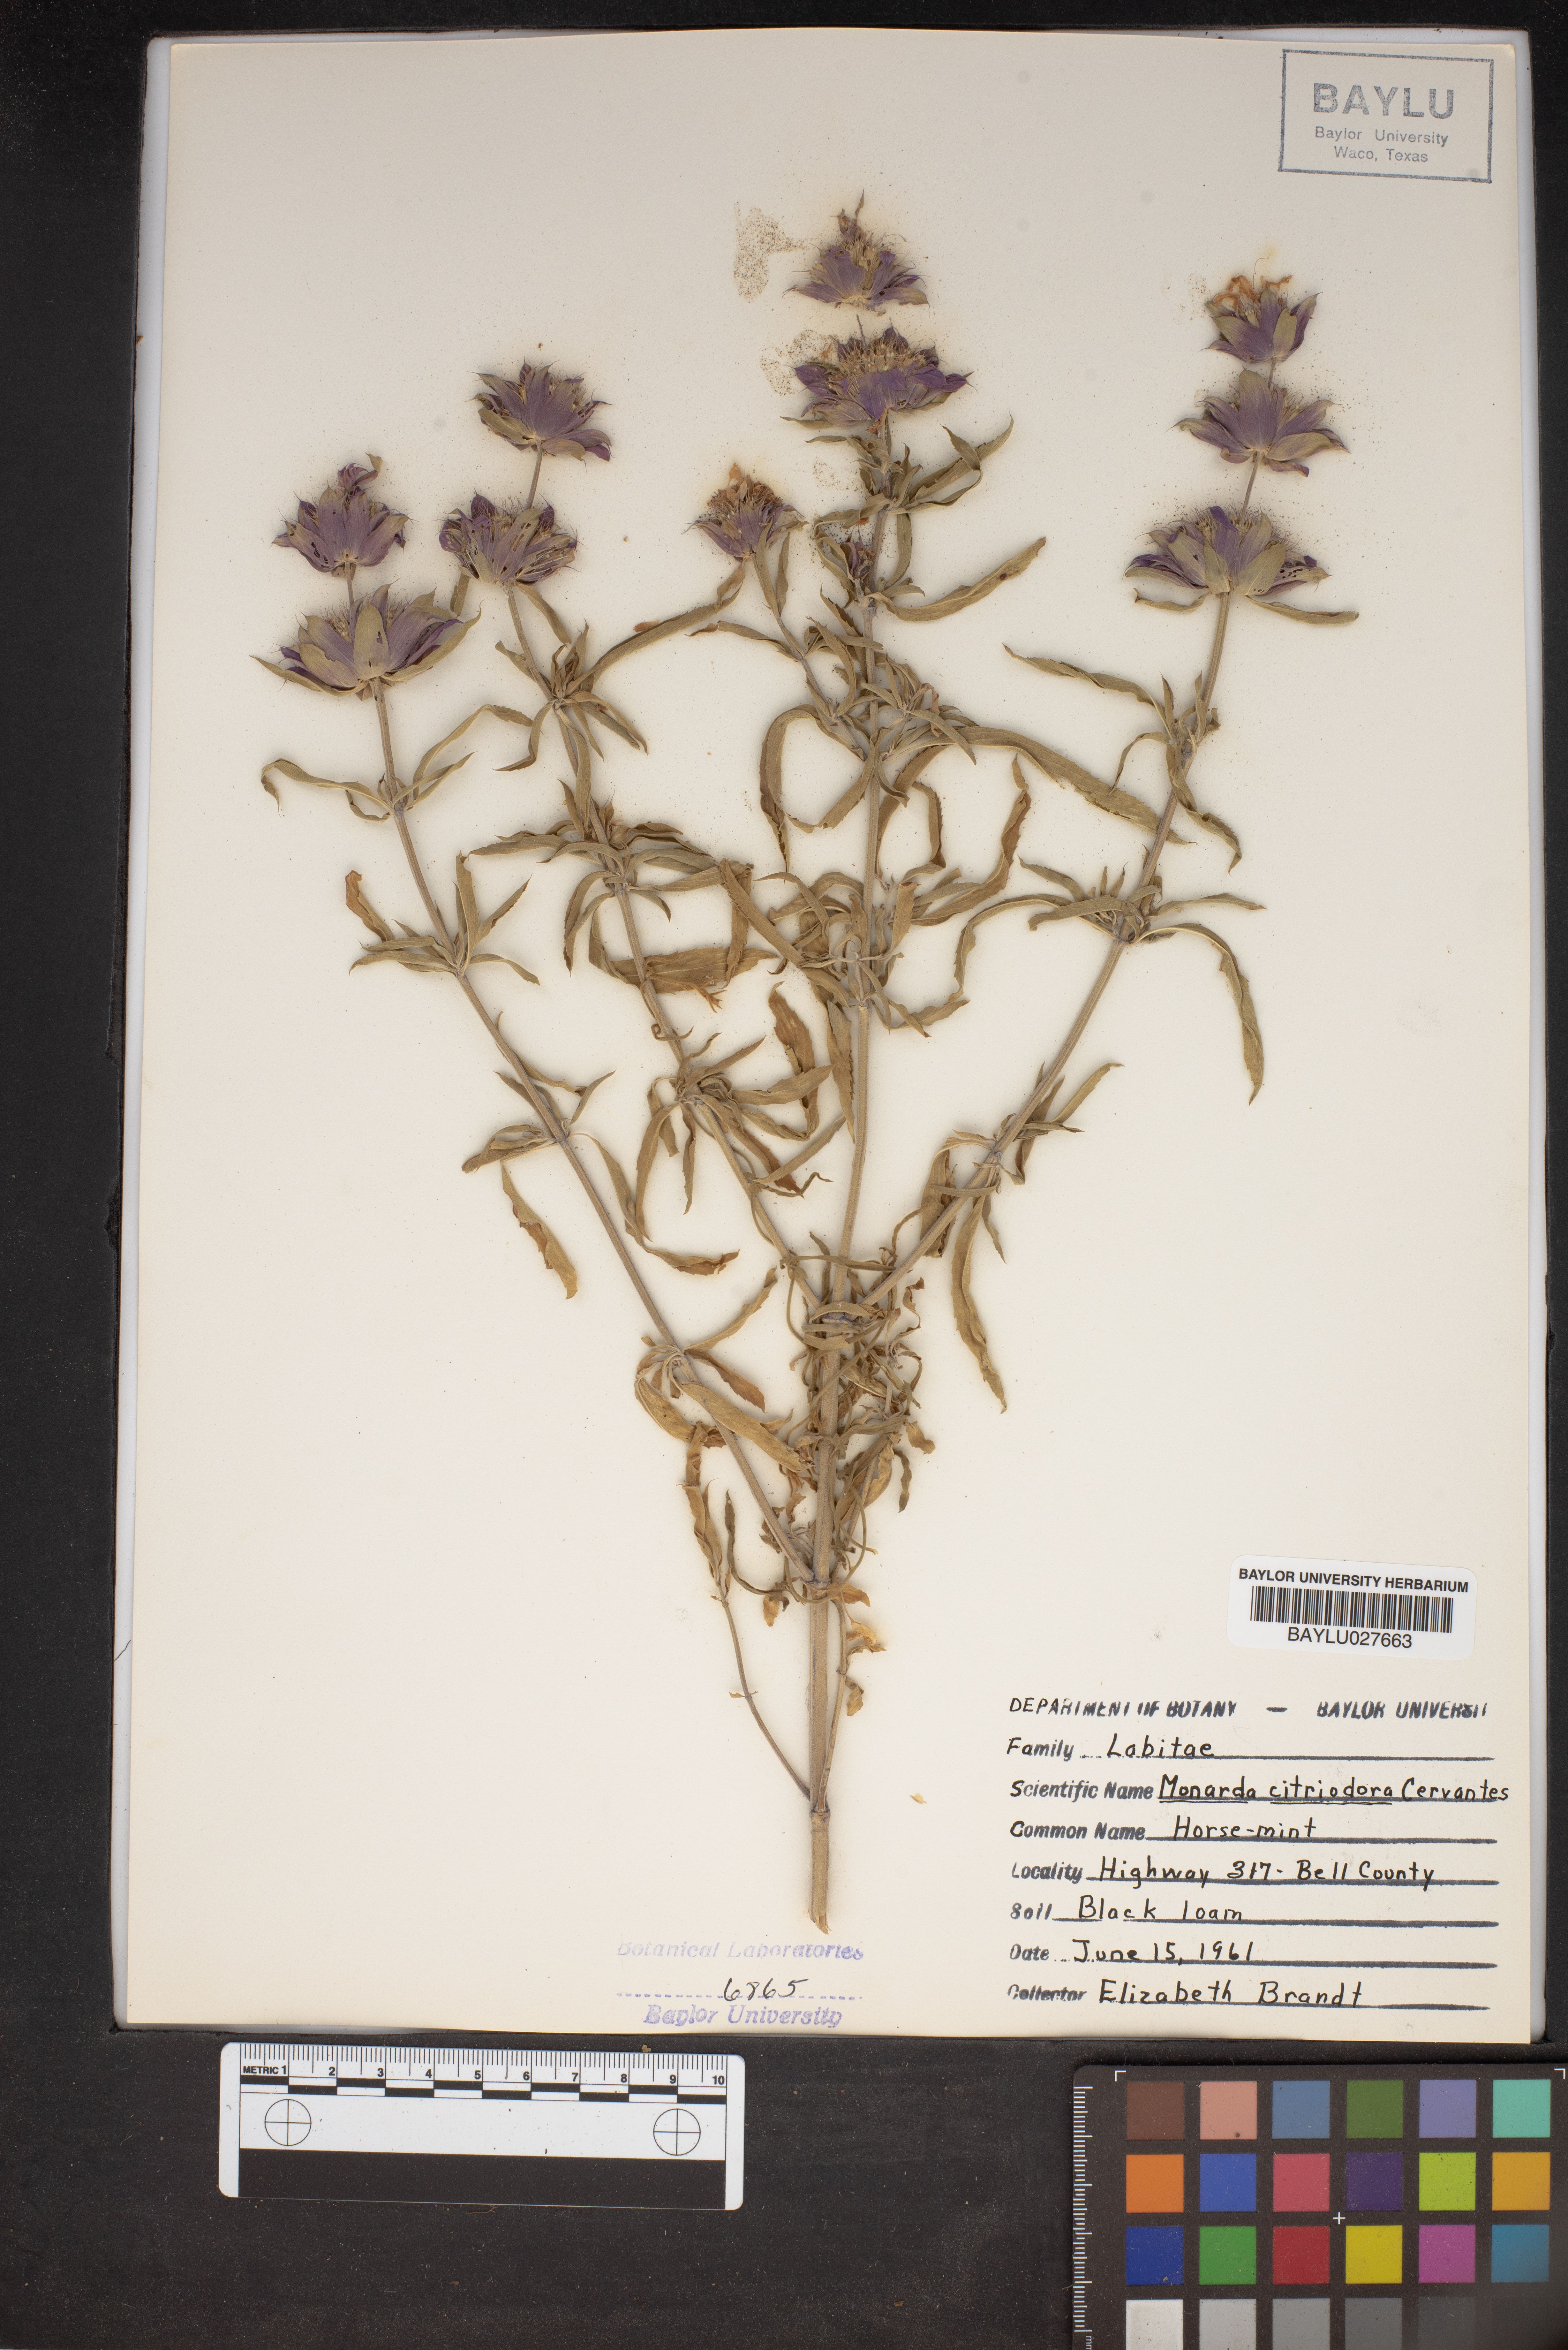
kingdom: Plantae
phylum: Tracheophyta
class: Magnoliopsida
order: Lamiales
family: Lamiaceae
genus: Monarda
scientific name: Monarda citriodora
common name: Lemon beebalm
